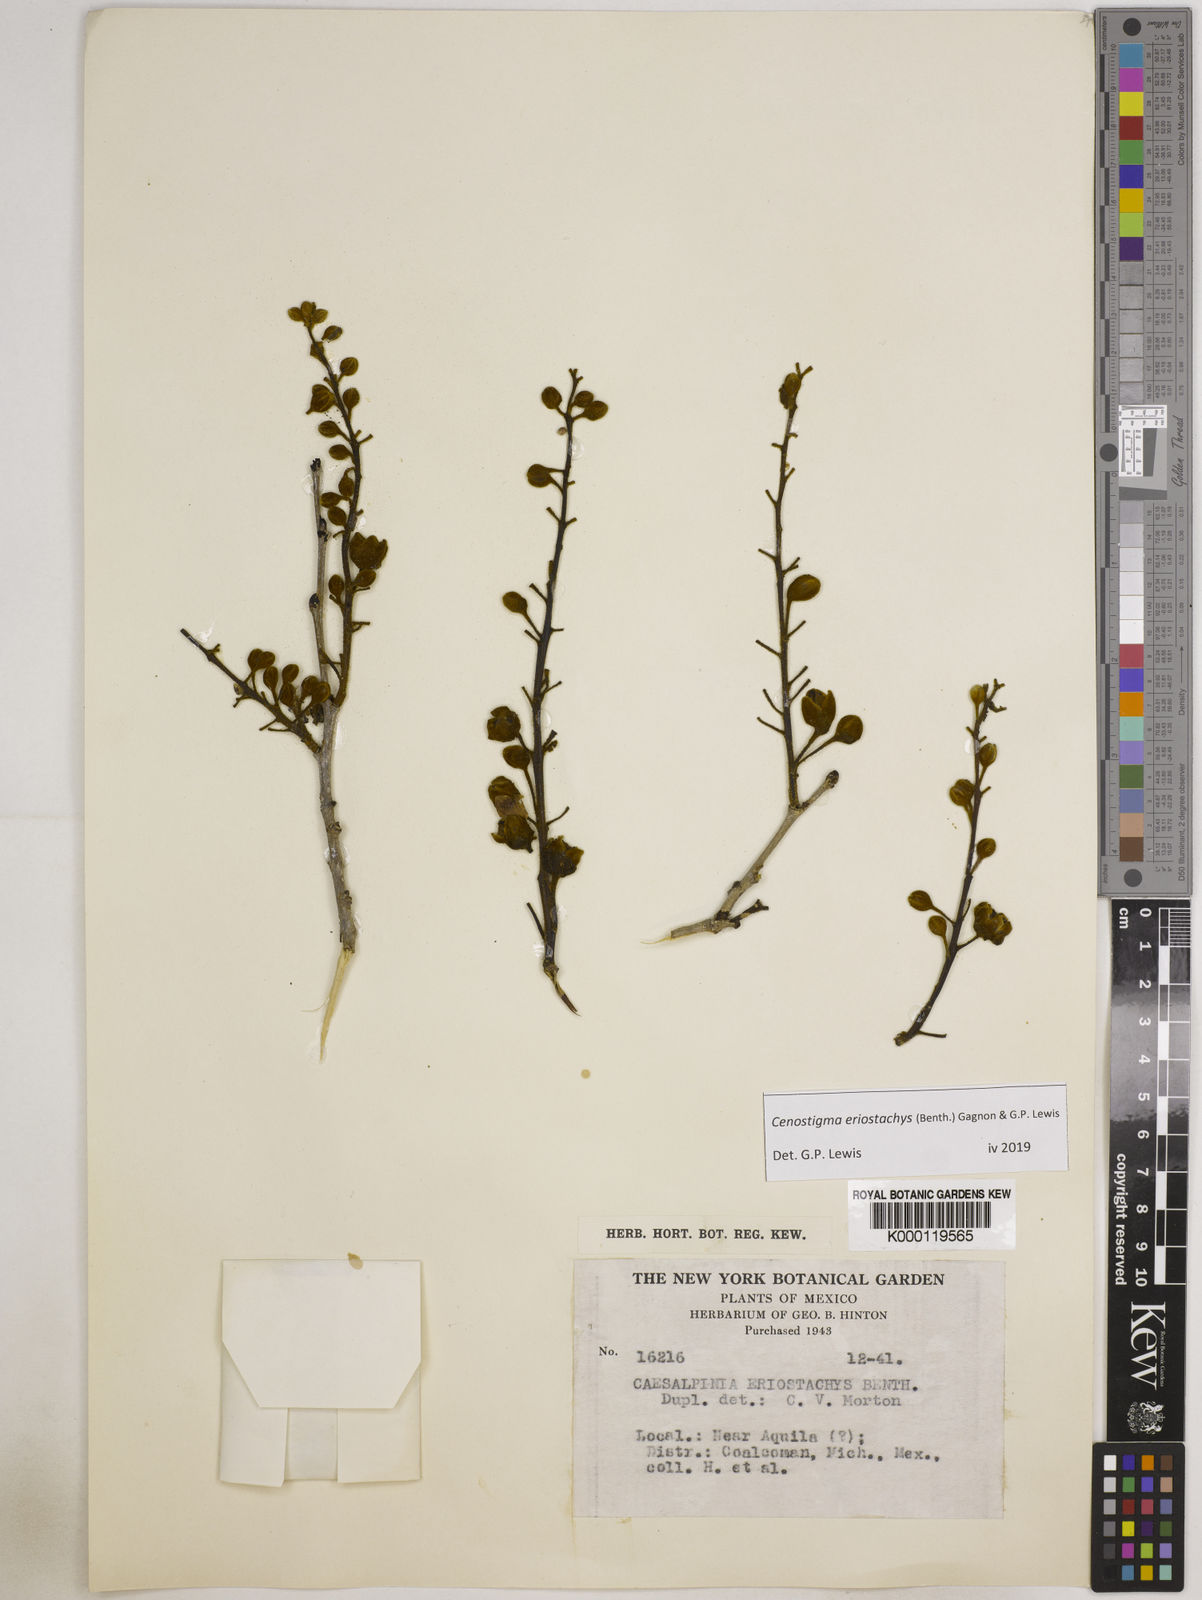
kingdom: Plantae
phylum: Tracheophyta
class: Magnoliopsida
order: Fabales
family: Fabaceae
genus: Cenostigma
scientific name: Cenostigma eriostachys
